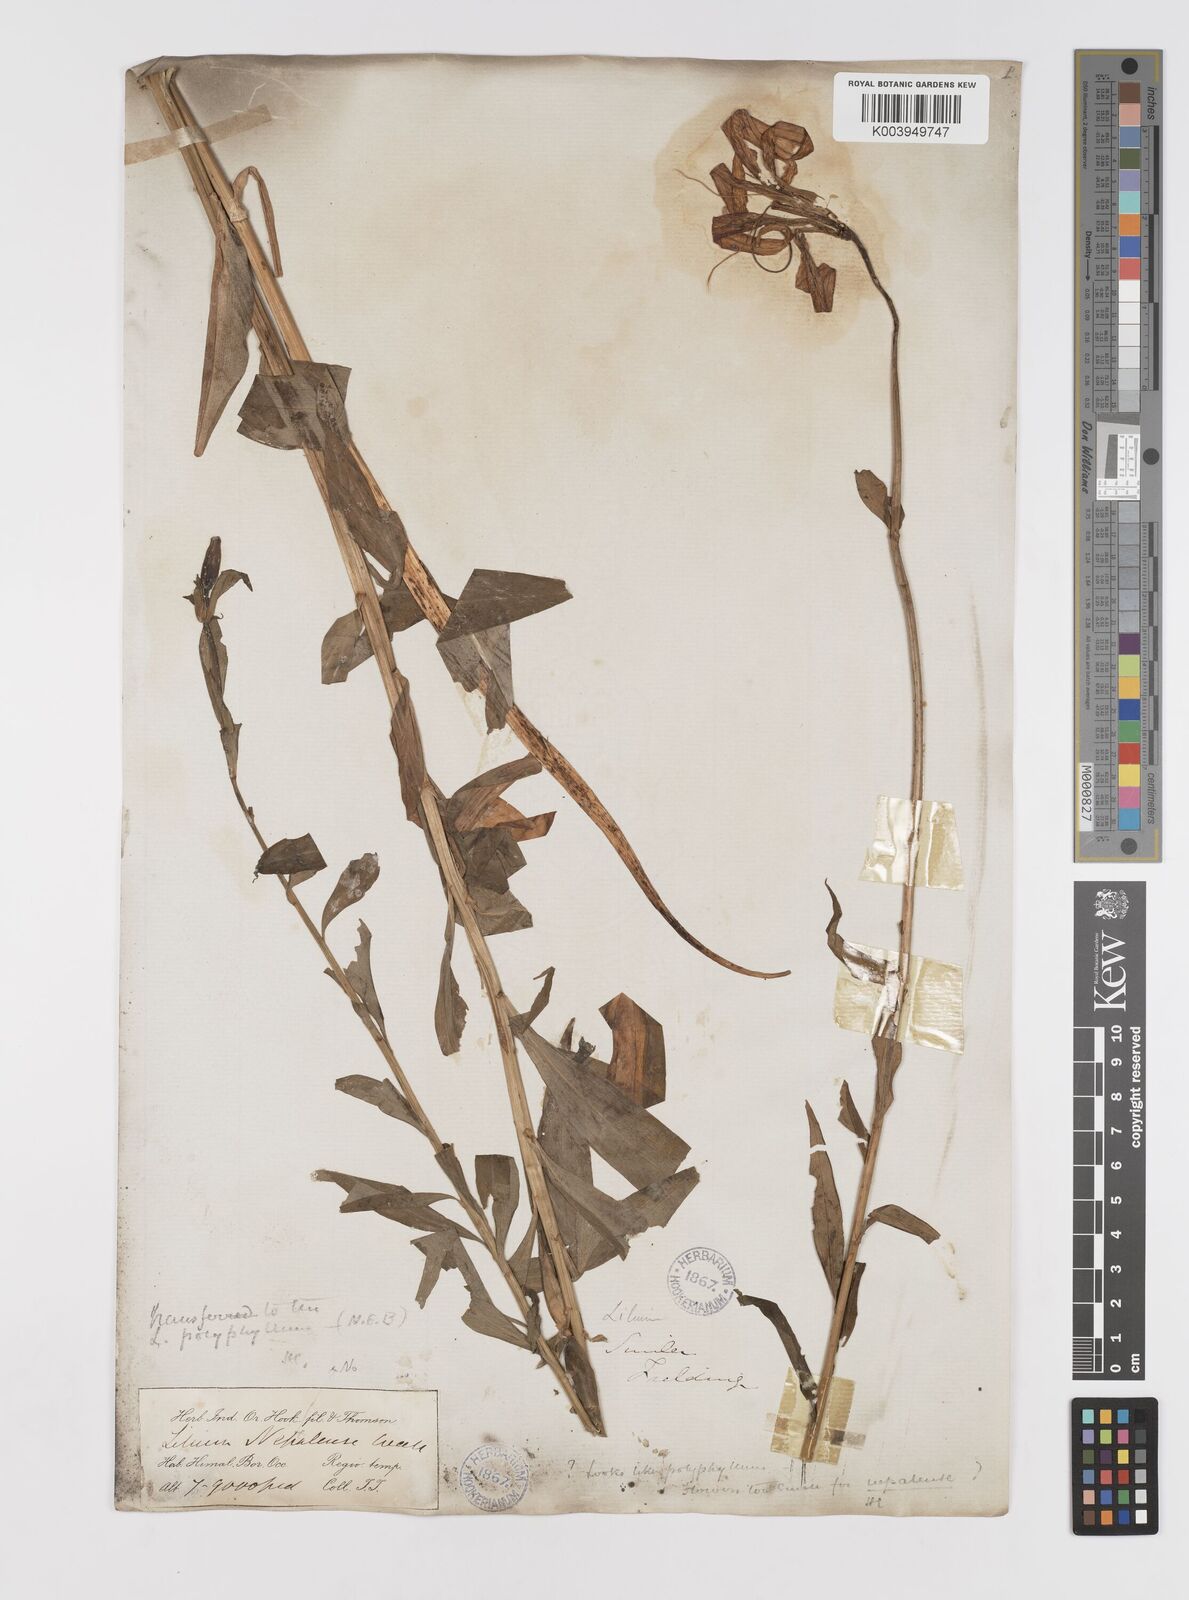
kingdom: Plantae
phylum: Tracheophyta
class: Liliopsida
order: Liliales
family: Liliaceae
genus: Lilium
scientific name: Lilium polyphyllum
